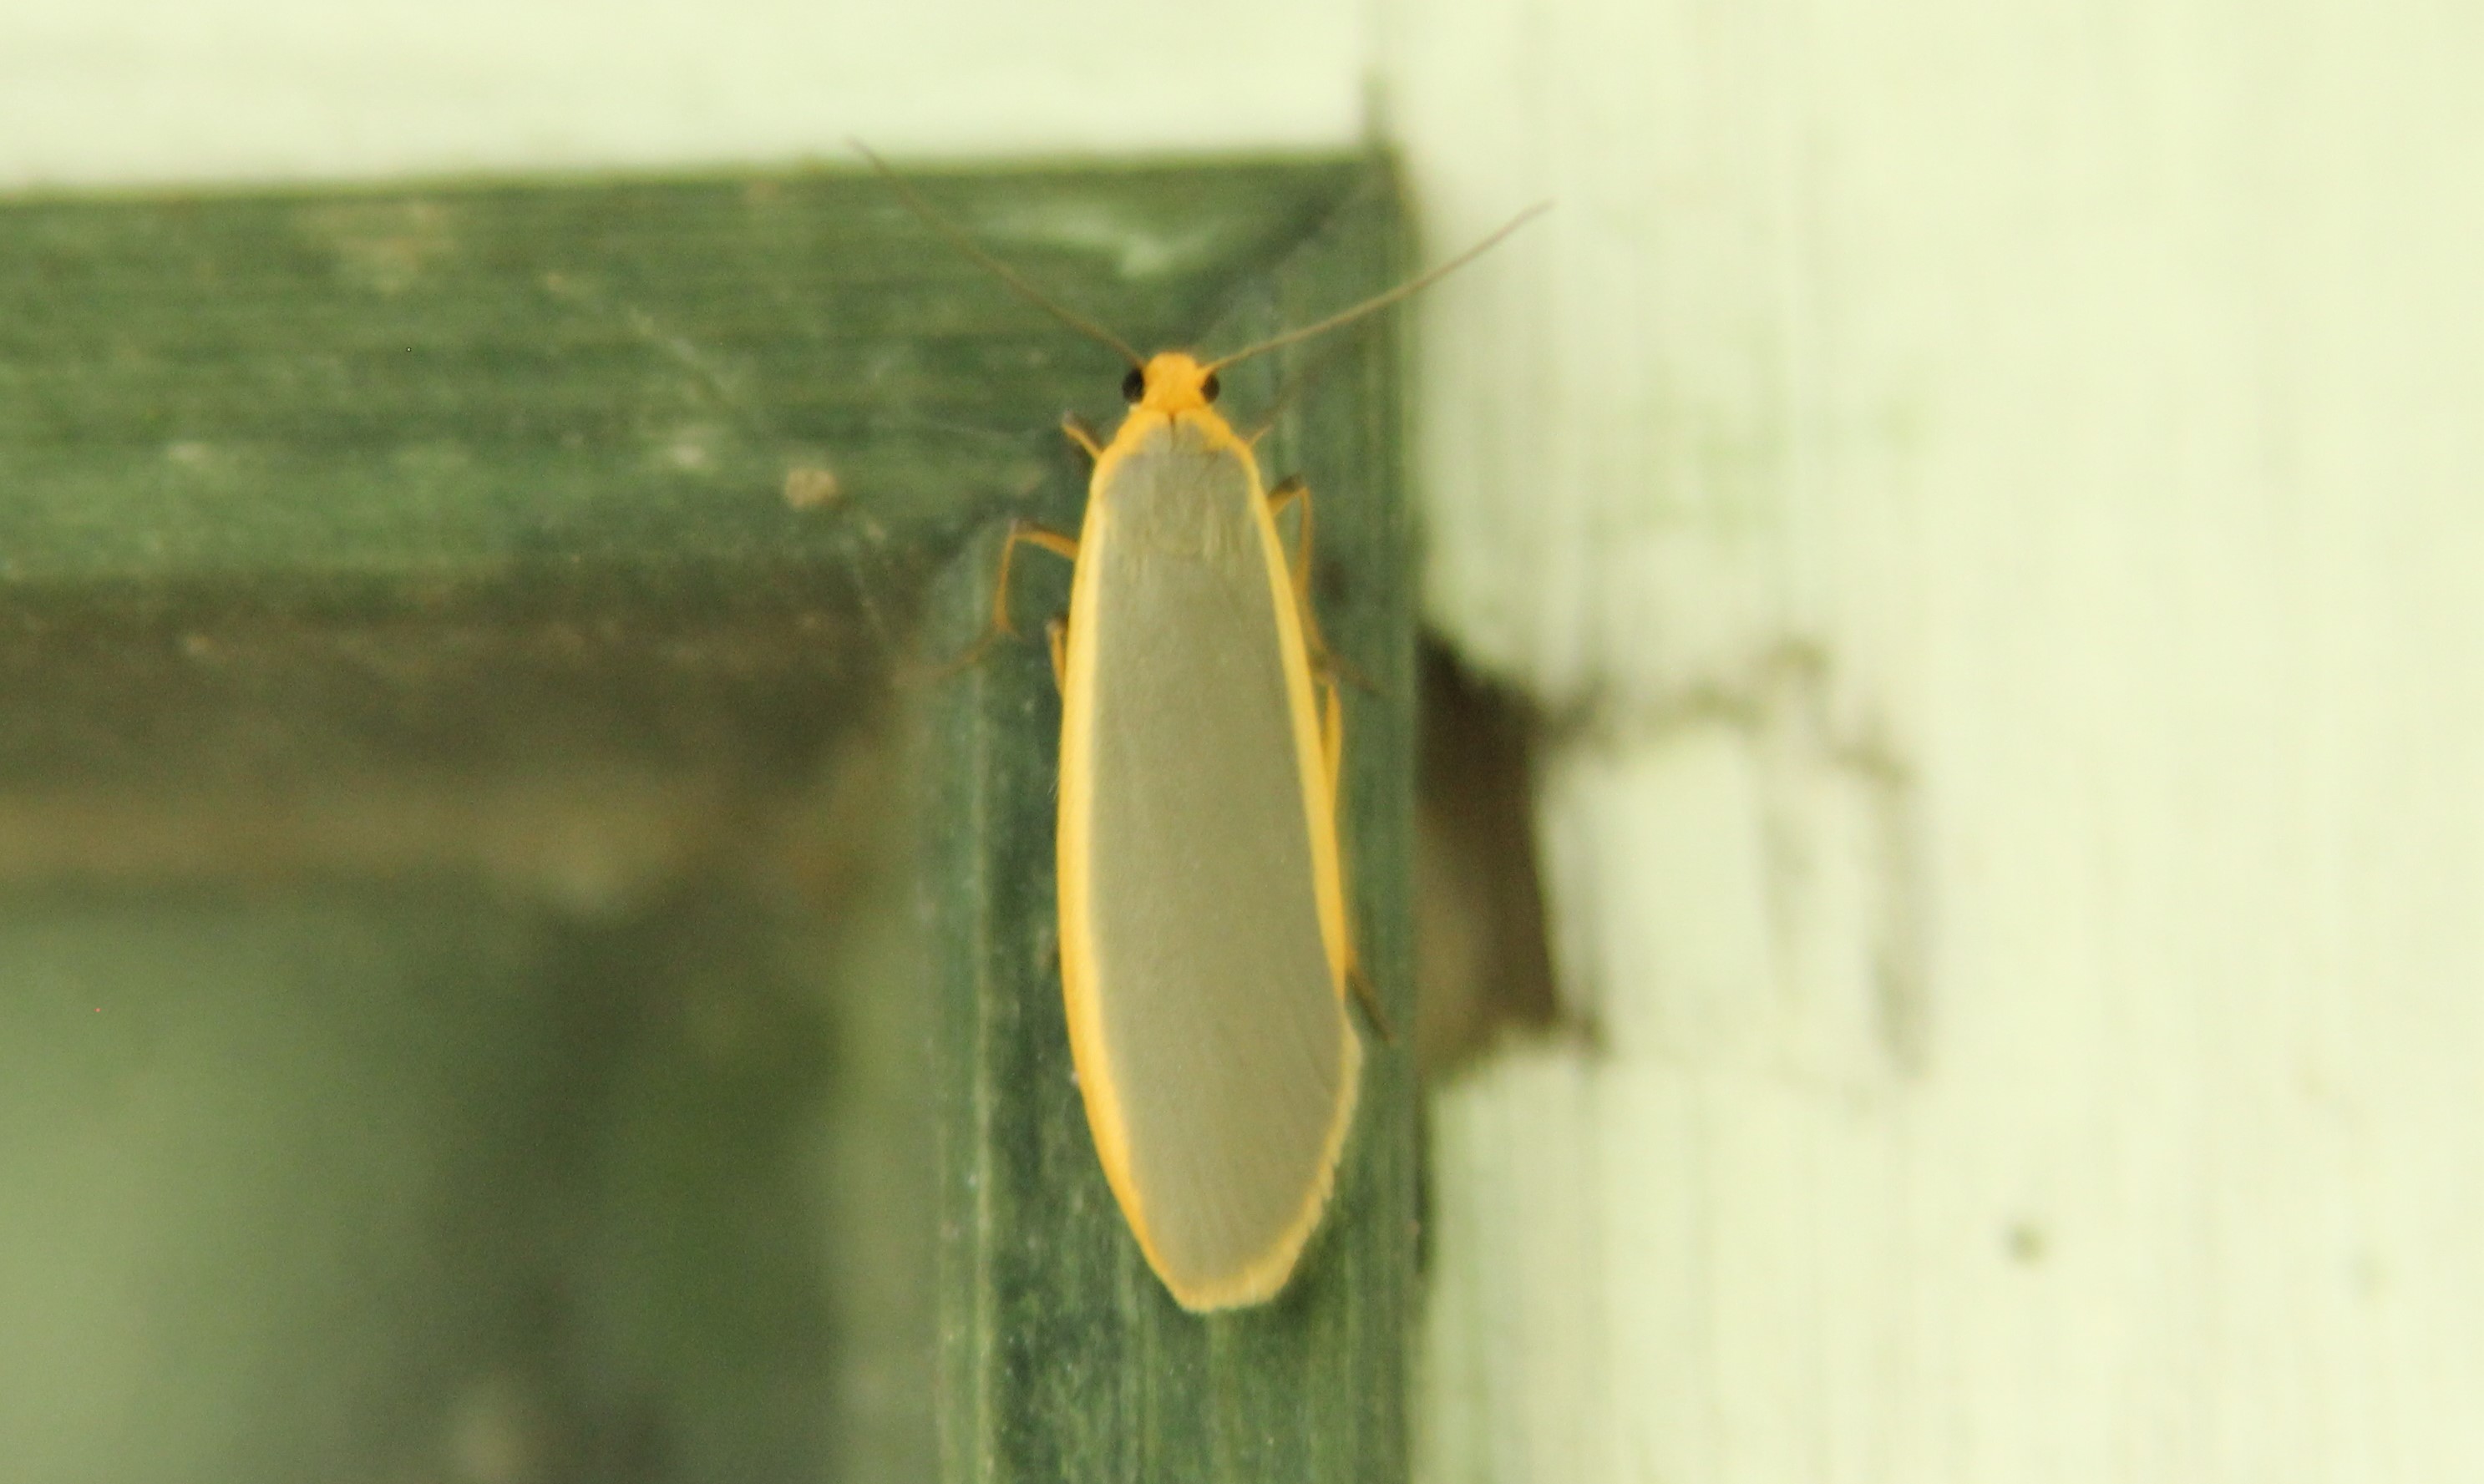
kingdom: Animalia
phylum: Arthropoda
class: Insecta
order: Lepidoptera
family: Erebidae
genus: Nyea
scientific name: Nyea lurideola
